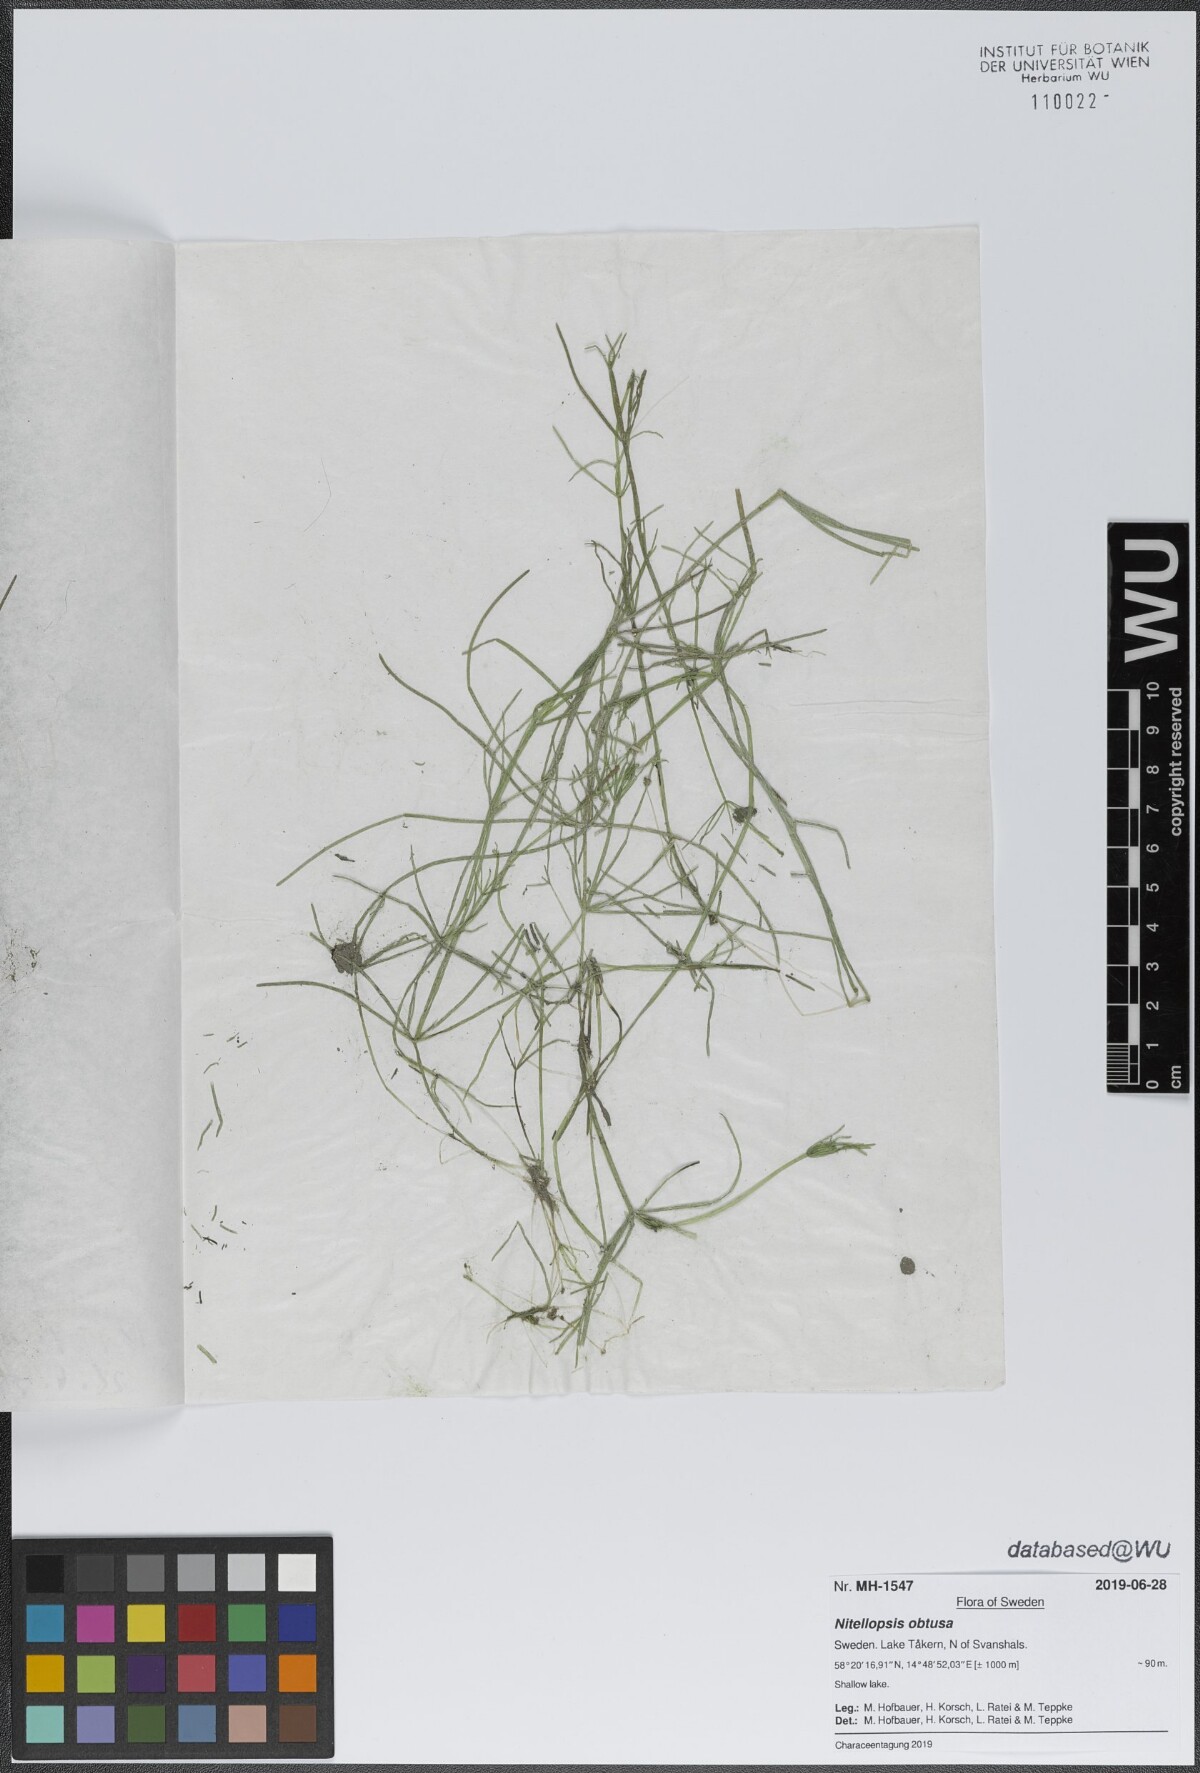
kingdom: Plantae
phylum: Charophyta
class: Charophyceae
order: Charales
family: Characeae
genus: Nitellopsis
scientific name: Nitellopsis obtusa
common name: Starry stonewort
